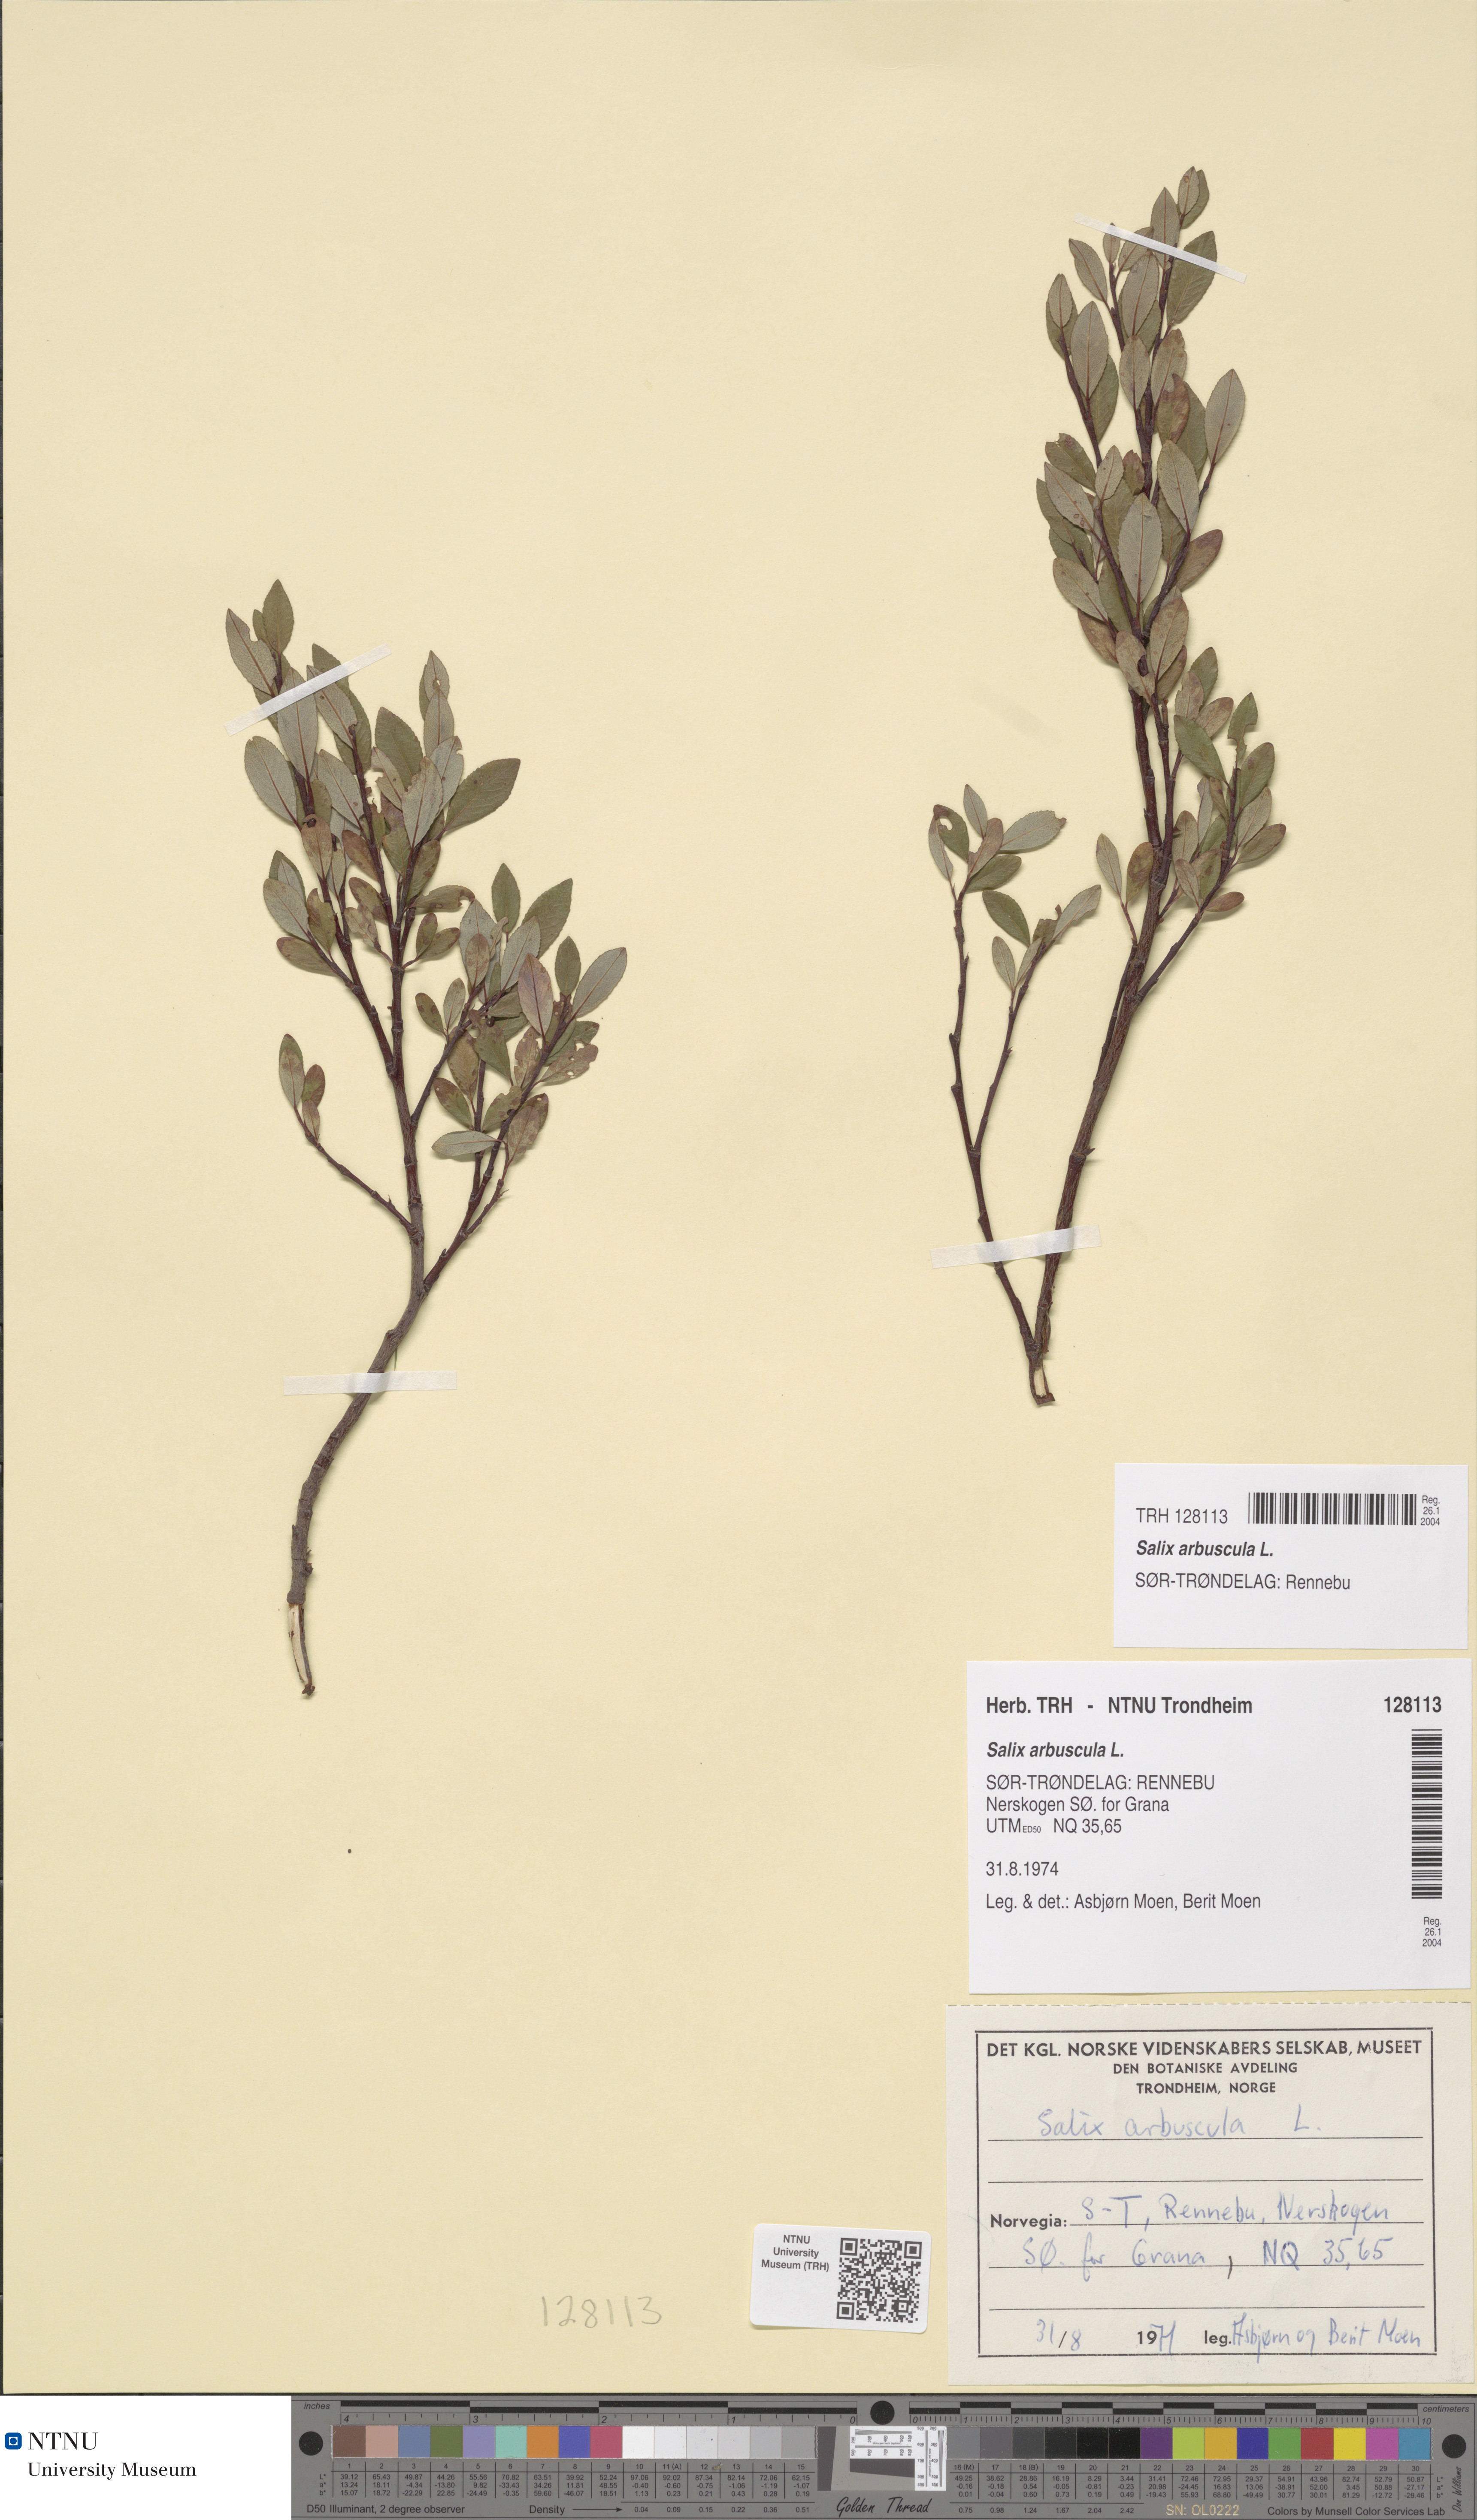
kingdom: Plantae
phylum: Tracheophyta
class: Magnoliopsida
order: Malpighiales
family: Salicaceae
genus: Salix
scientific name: Salix arbuscula
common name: Mountain willow
